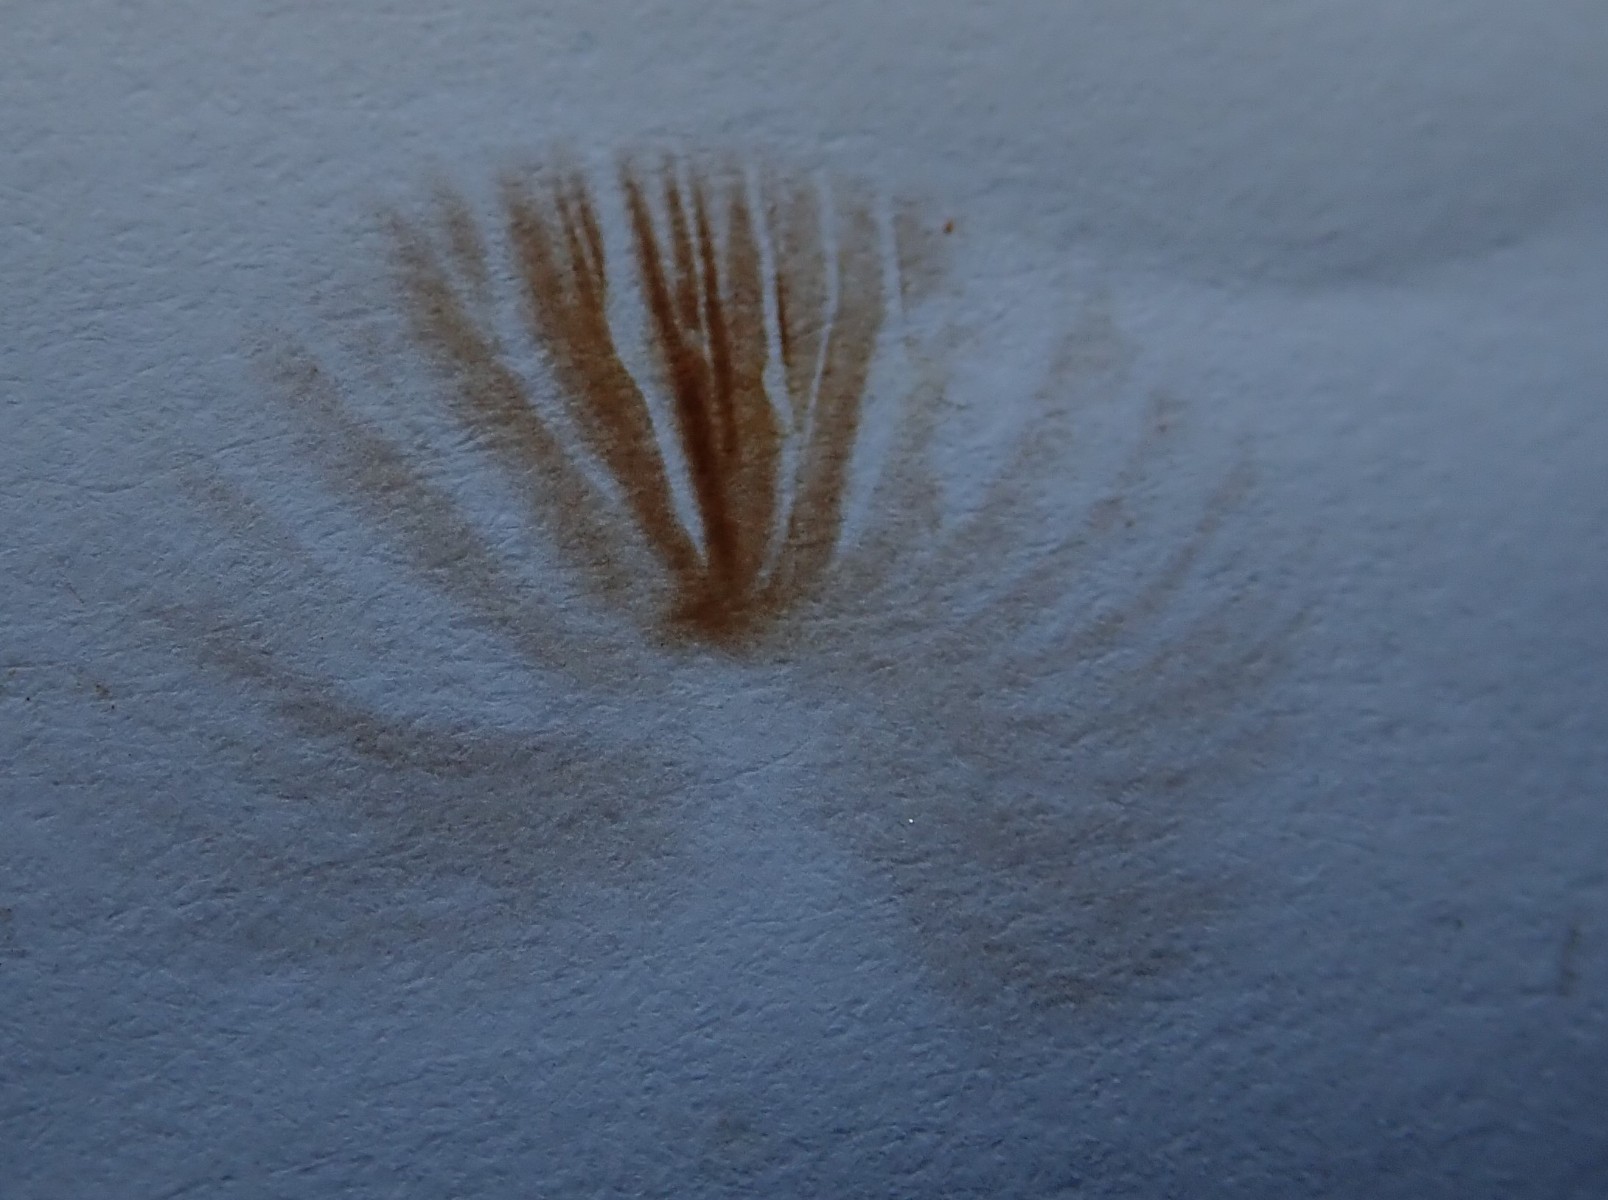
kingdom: Fungi
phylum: Basidiomycota
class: Agaricomycetes
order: Agaricales
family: Bolbitiaceae
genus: Conocybe
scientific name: Conocybe
